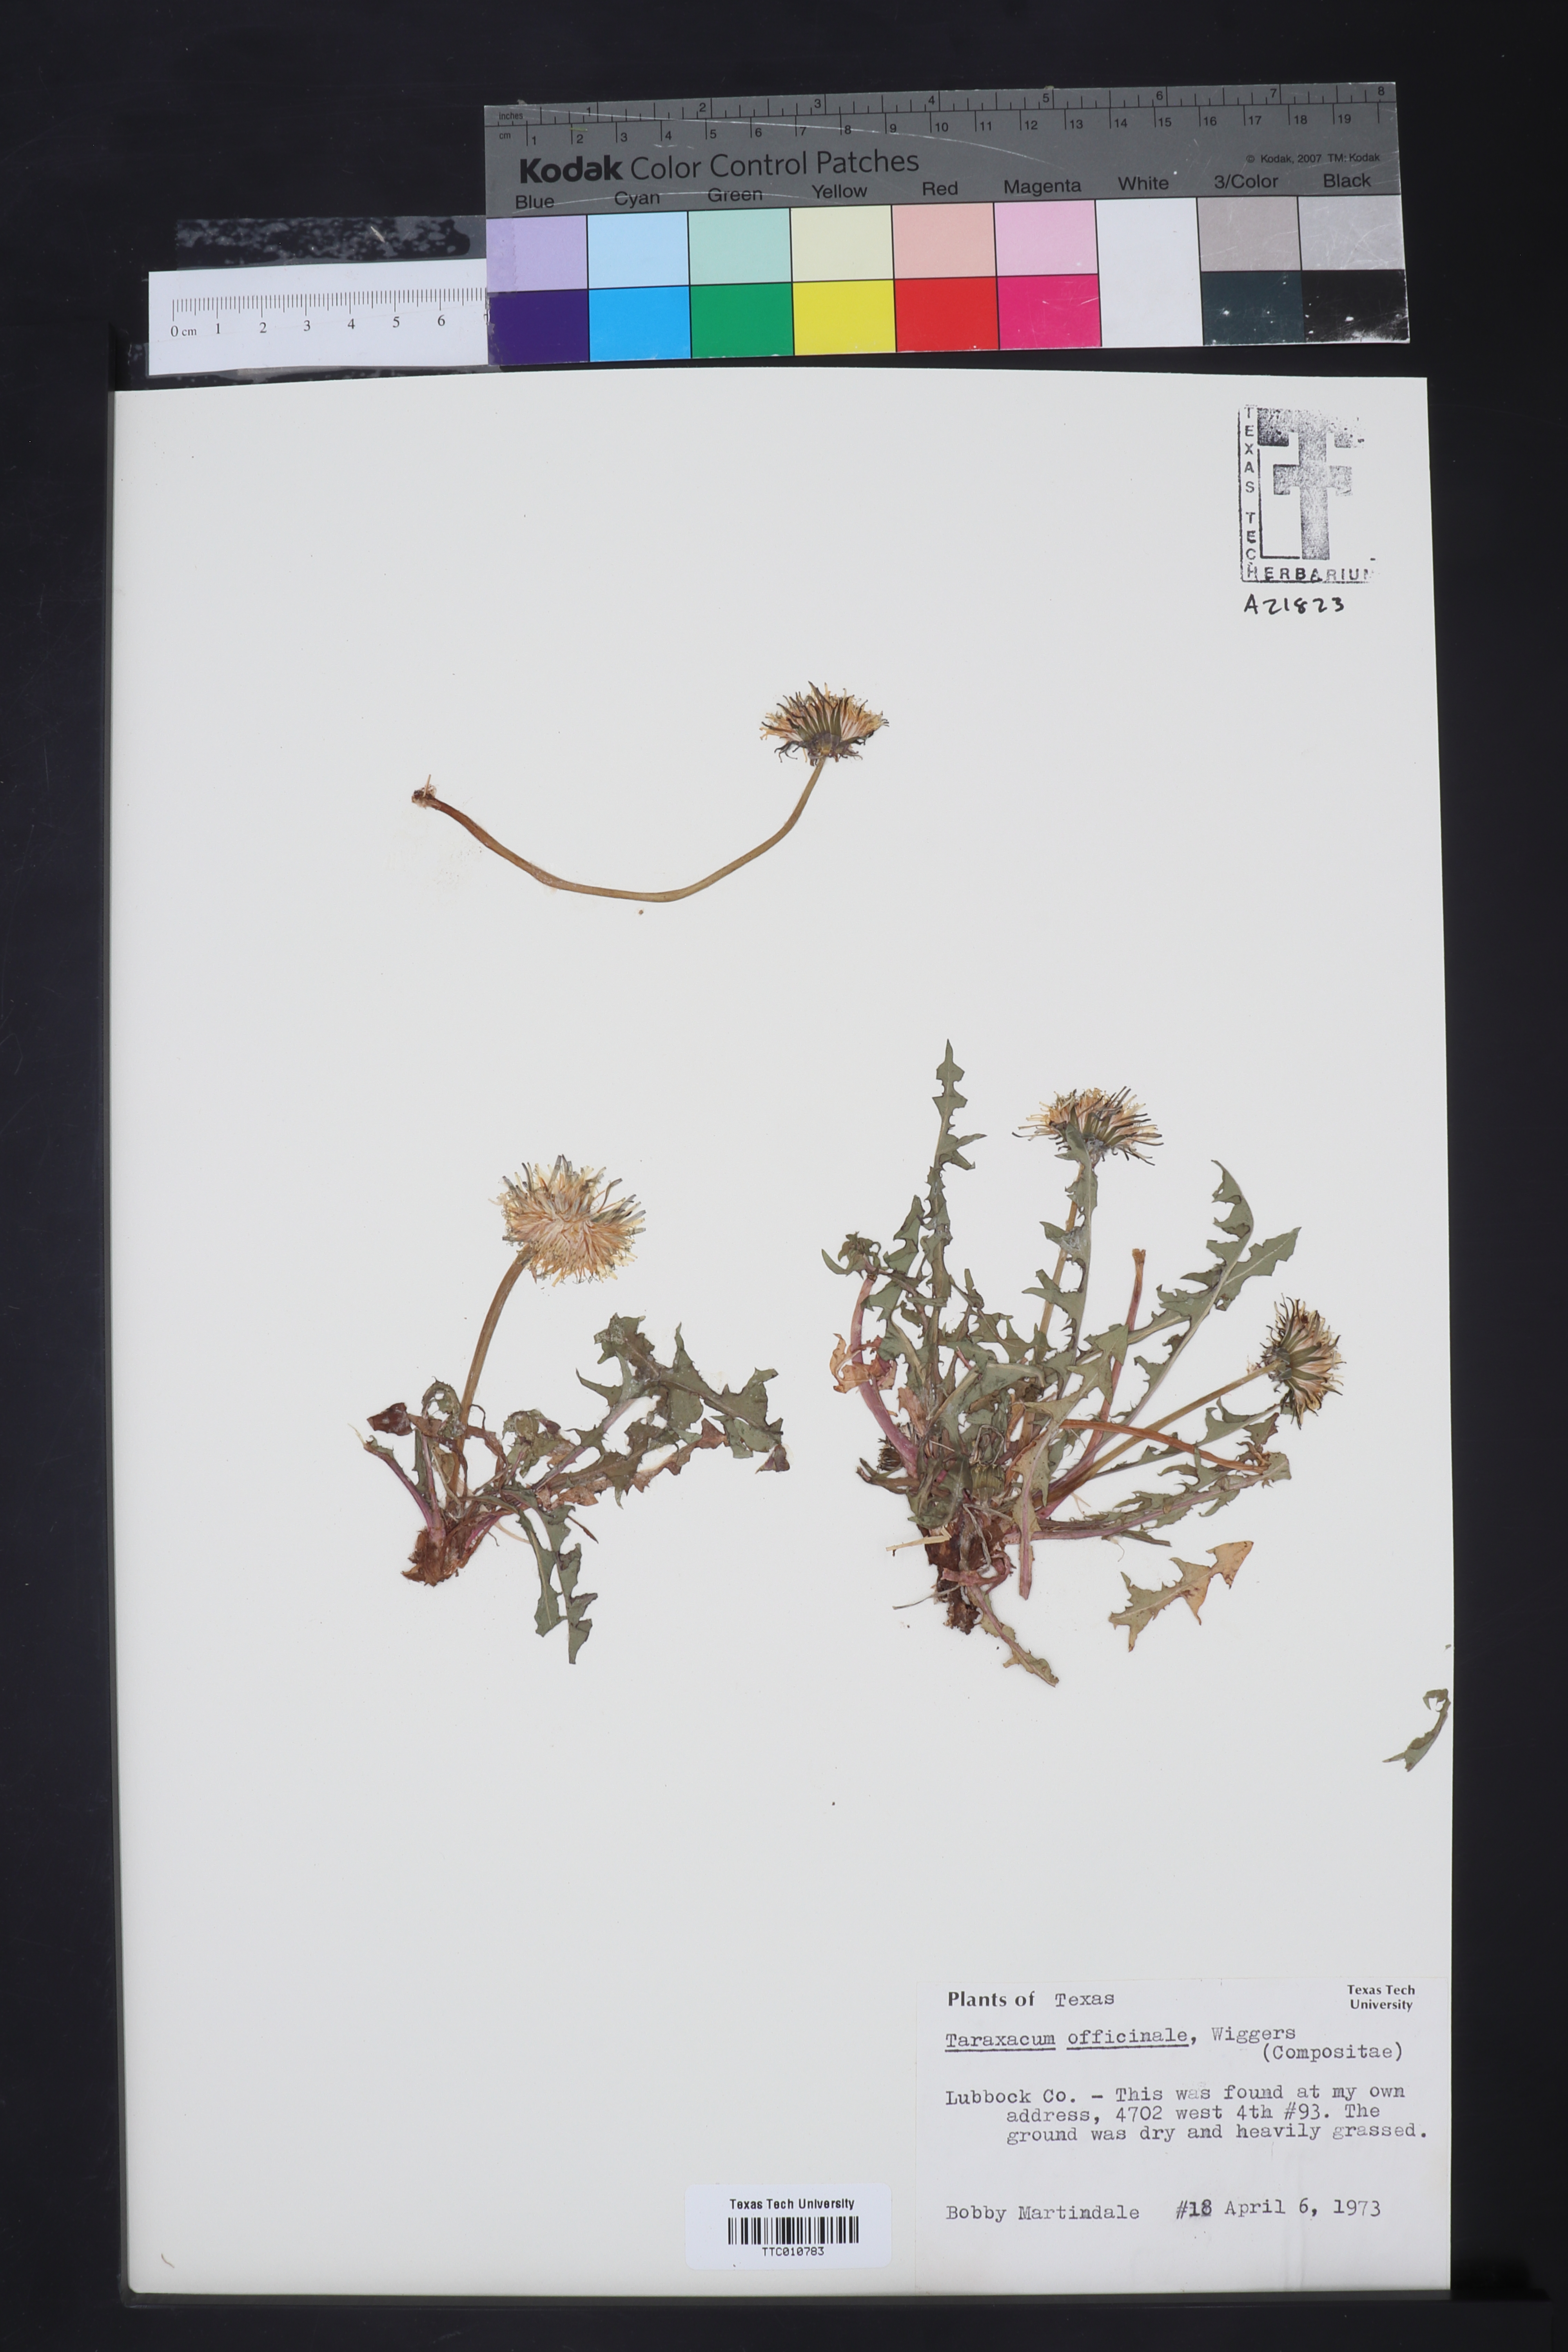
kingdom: Plantae
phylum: Tracheophyta
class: Magnoliopsida
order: Asterales
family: Asteraceae
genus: Taraxacum
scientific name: Taraxacum officinale
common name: Common dandelion
